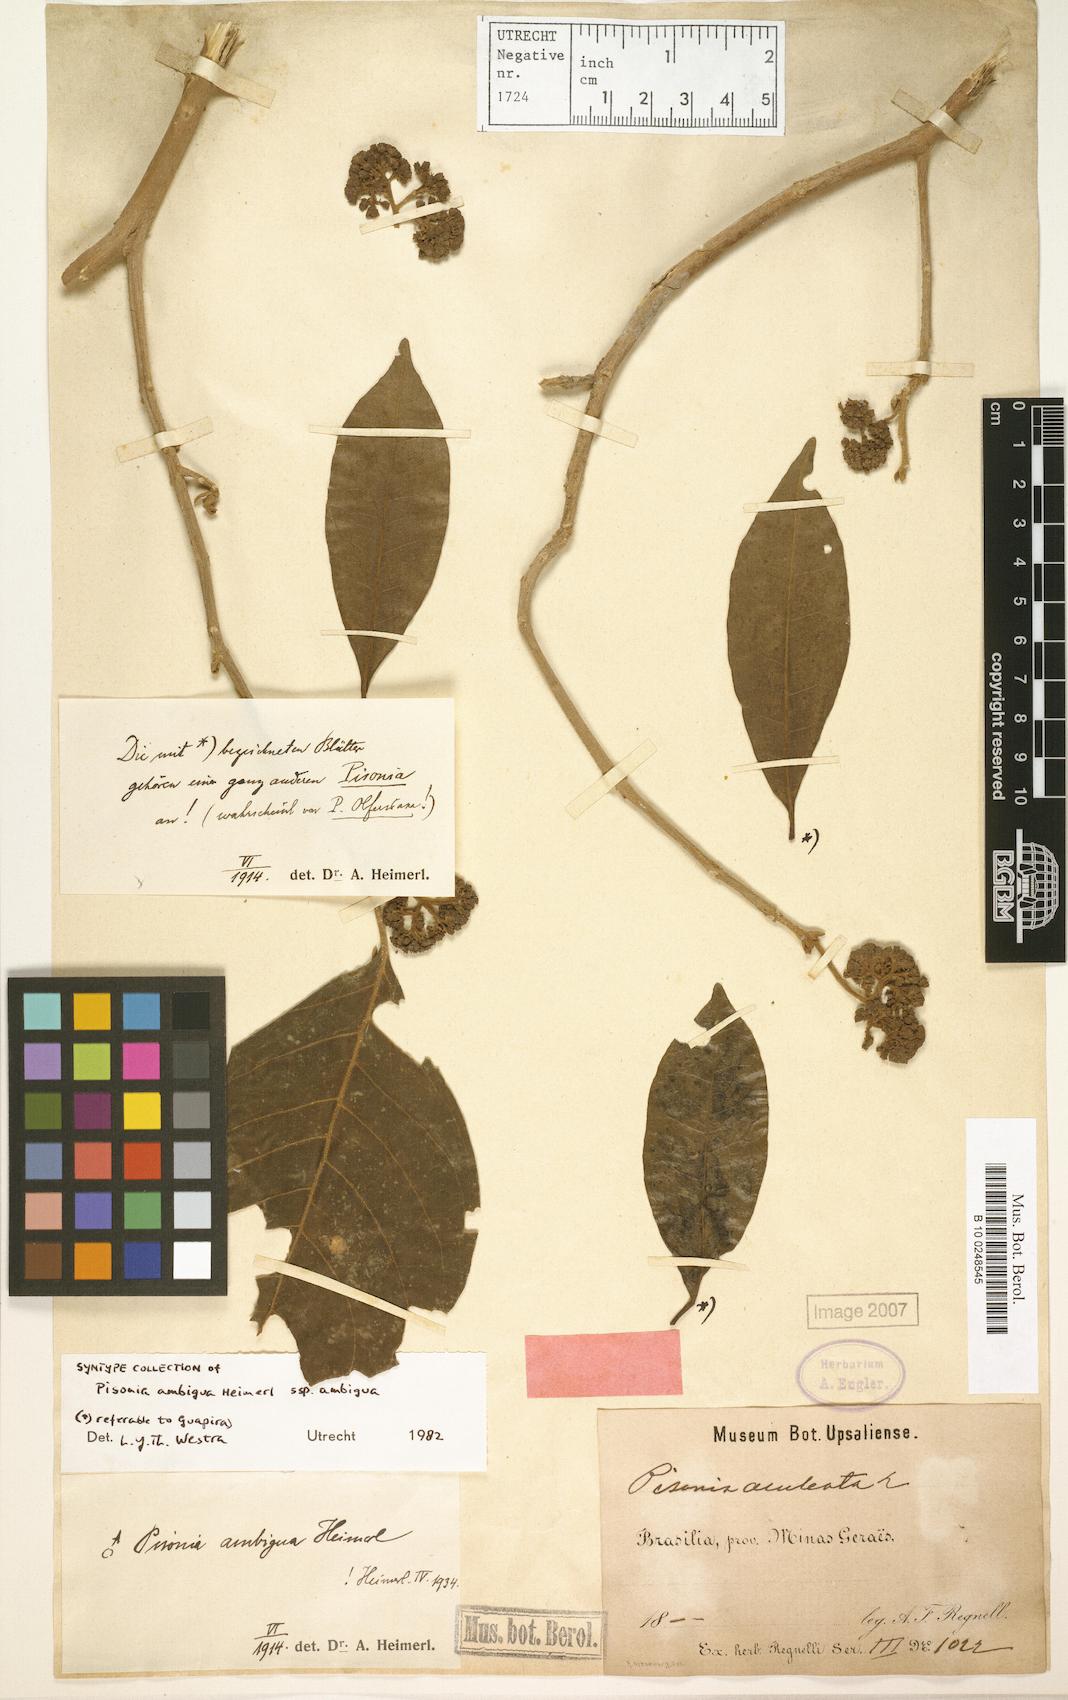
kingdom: Plantae
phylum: Tracheophyta
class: Magnoliopsida
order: Caryophyllales
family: Nyctaginaceae
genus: Pisonia
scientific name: Pisonia ambigua
